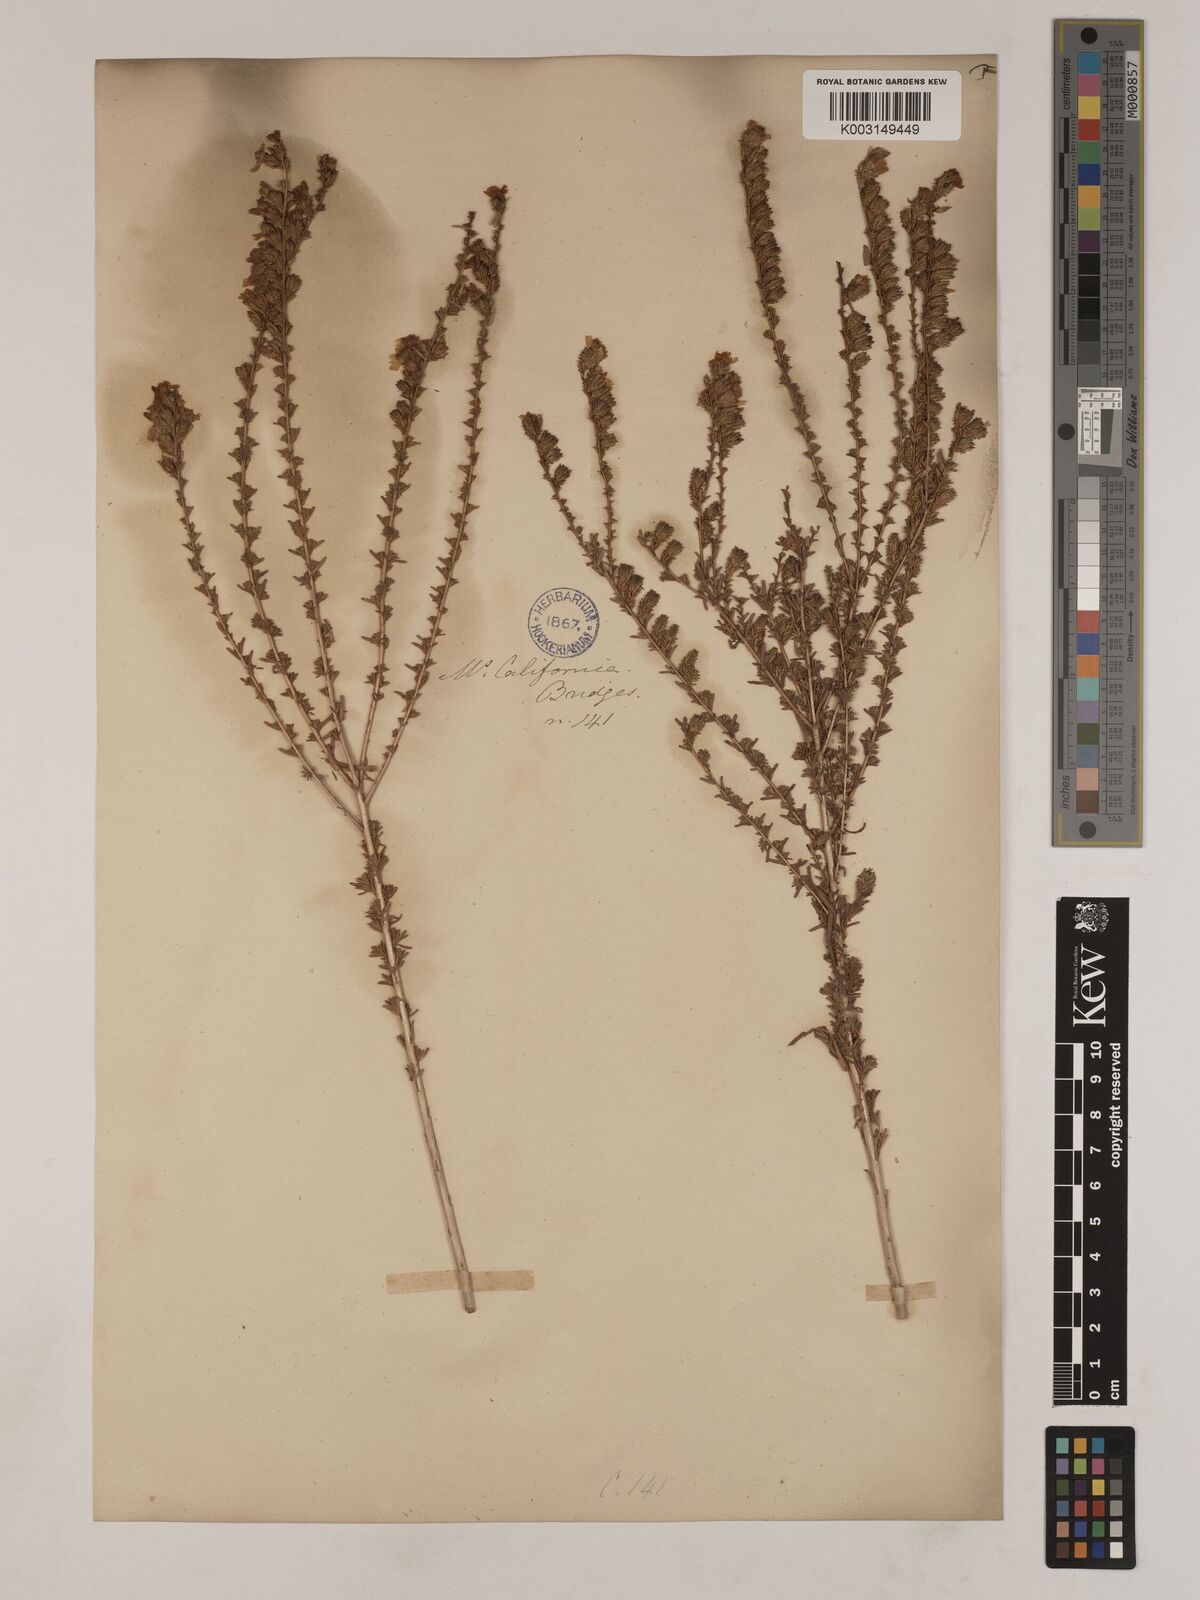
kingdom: Plantae
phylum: Tracheophyta
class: Magnoliopsida
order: Asterales
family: Asteraceae
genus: Holocarpha
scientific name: Holocarpha virgata
